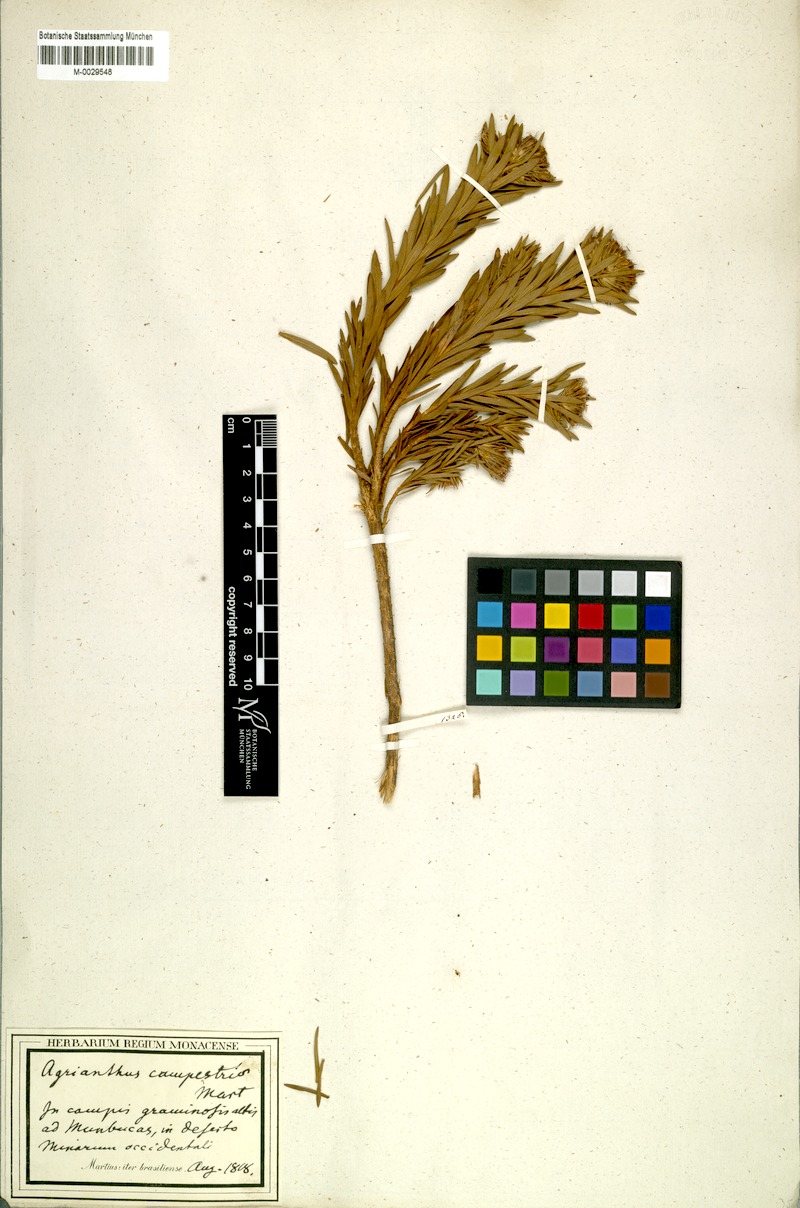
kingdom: Plantae
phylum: Tracheophyta
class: Magnoliopsida
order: Asterales
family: Asteraceae
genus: Agrianthus
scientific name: Agrianthus campestris
